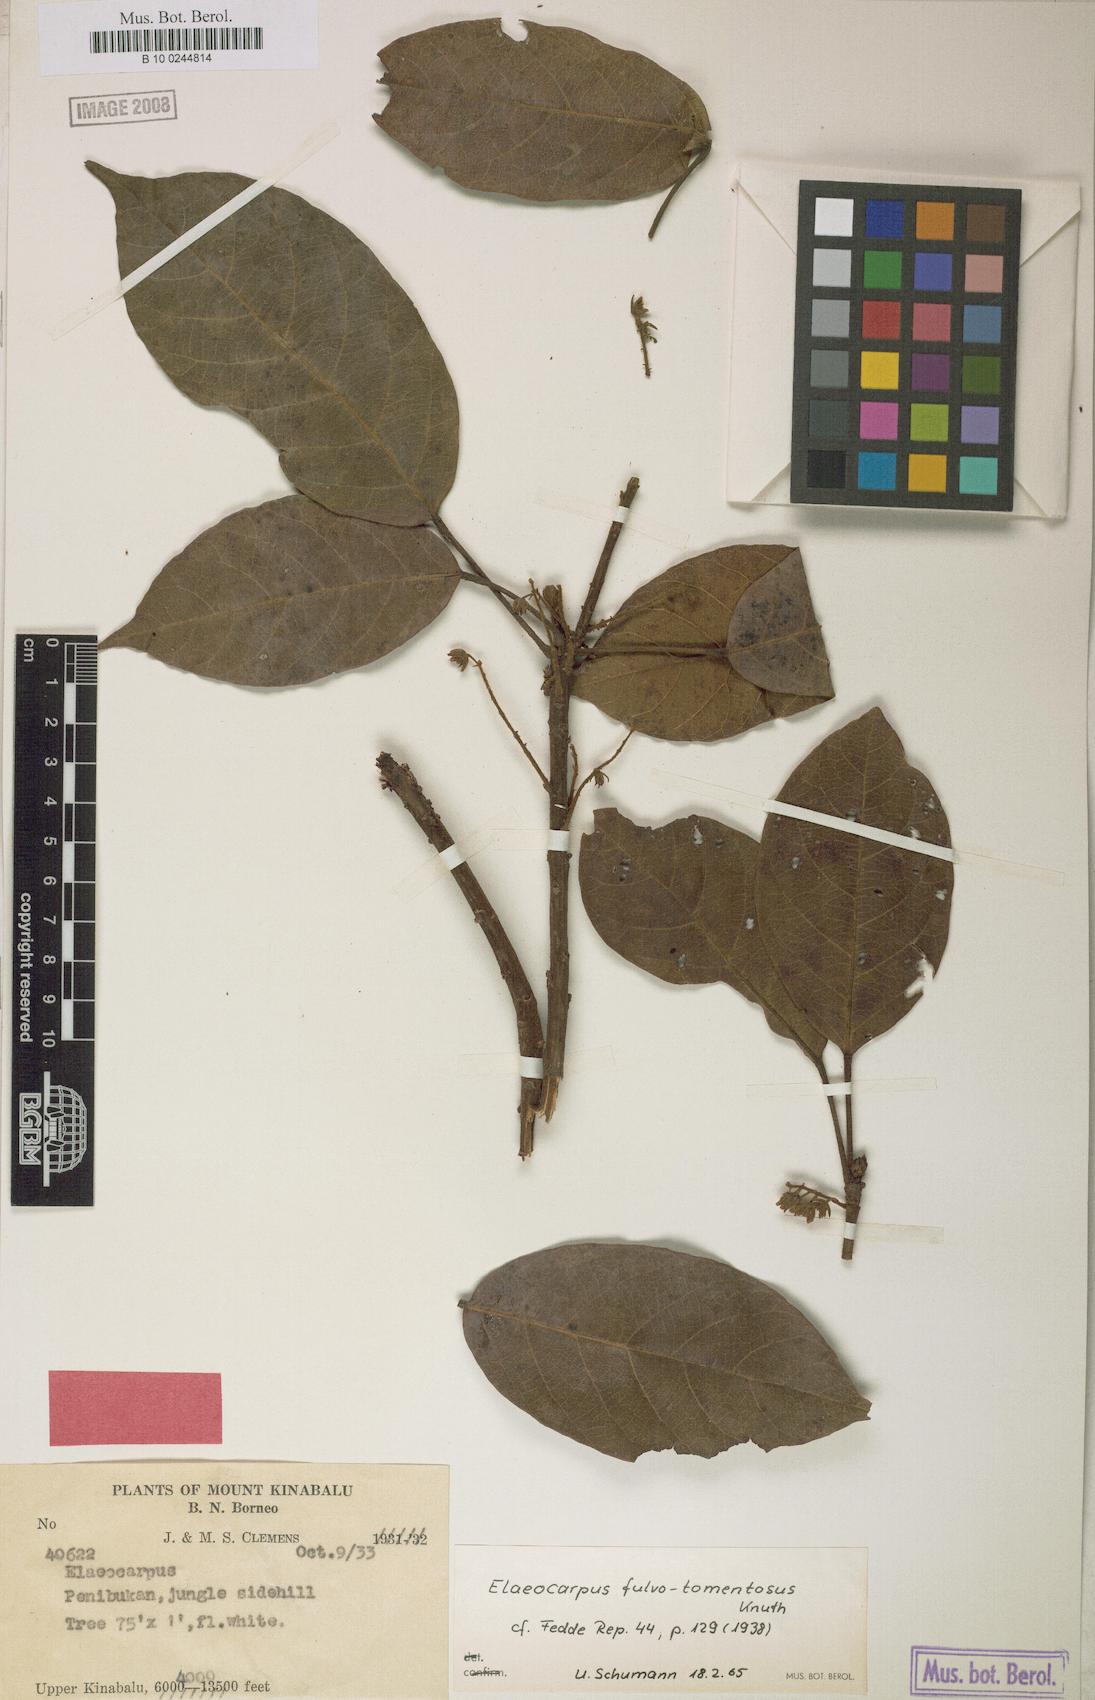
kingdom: Plantae
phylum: Tracheophyta
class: Magnoliopsida
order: Oxalidales
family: Elaeocarpaceae
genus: Elaeocarpus
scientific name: Elaeocarpus ferrugineus
